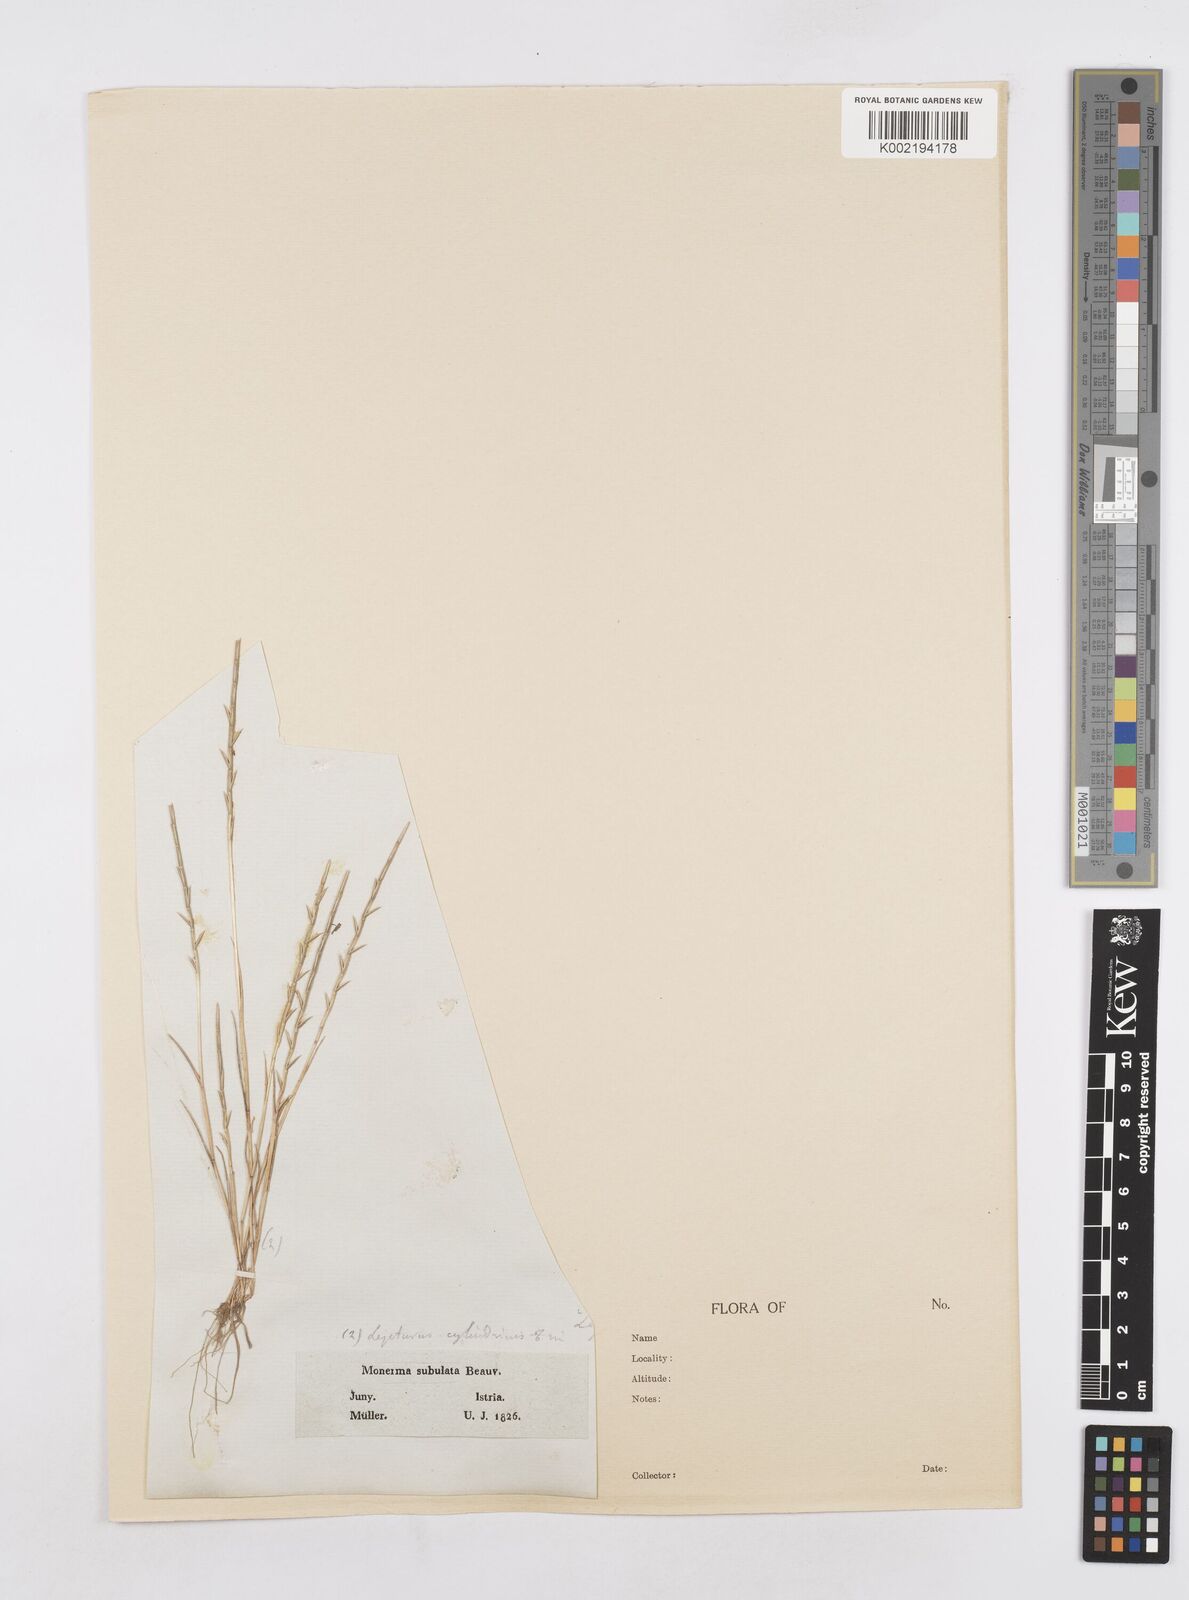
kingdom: Plantae
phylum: Tracheophyta
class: Liliopsida
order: Poales
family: Poaceae
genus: Parapholis
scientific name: Parapholis cylindrica
